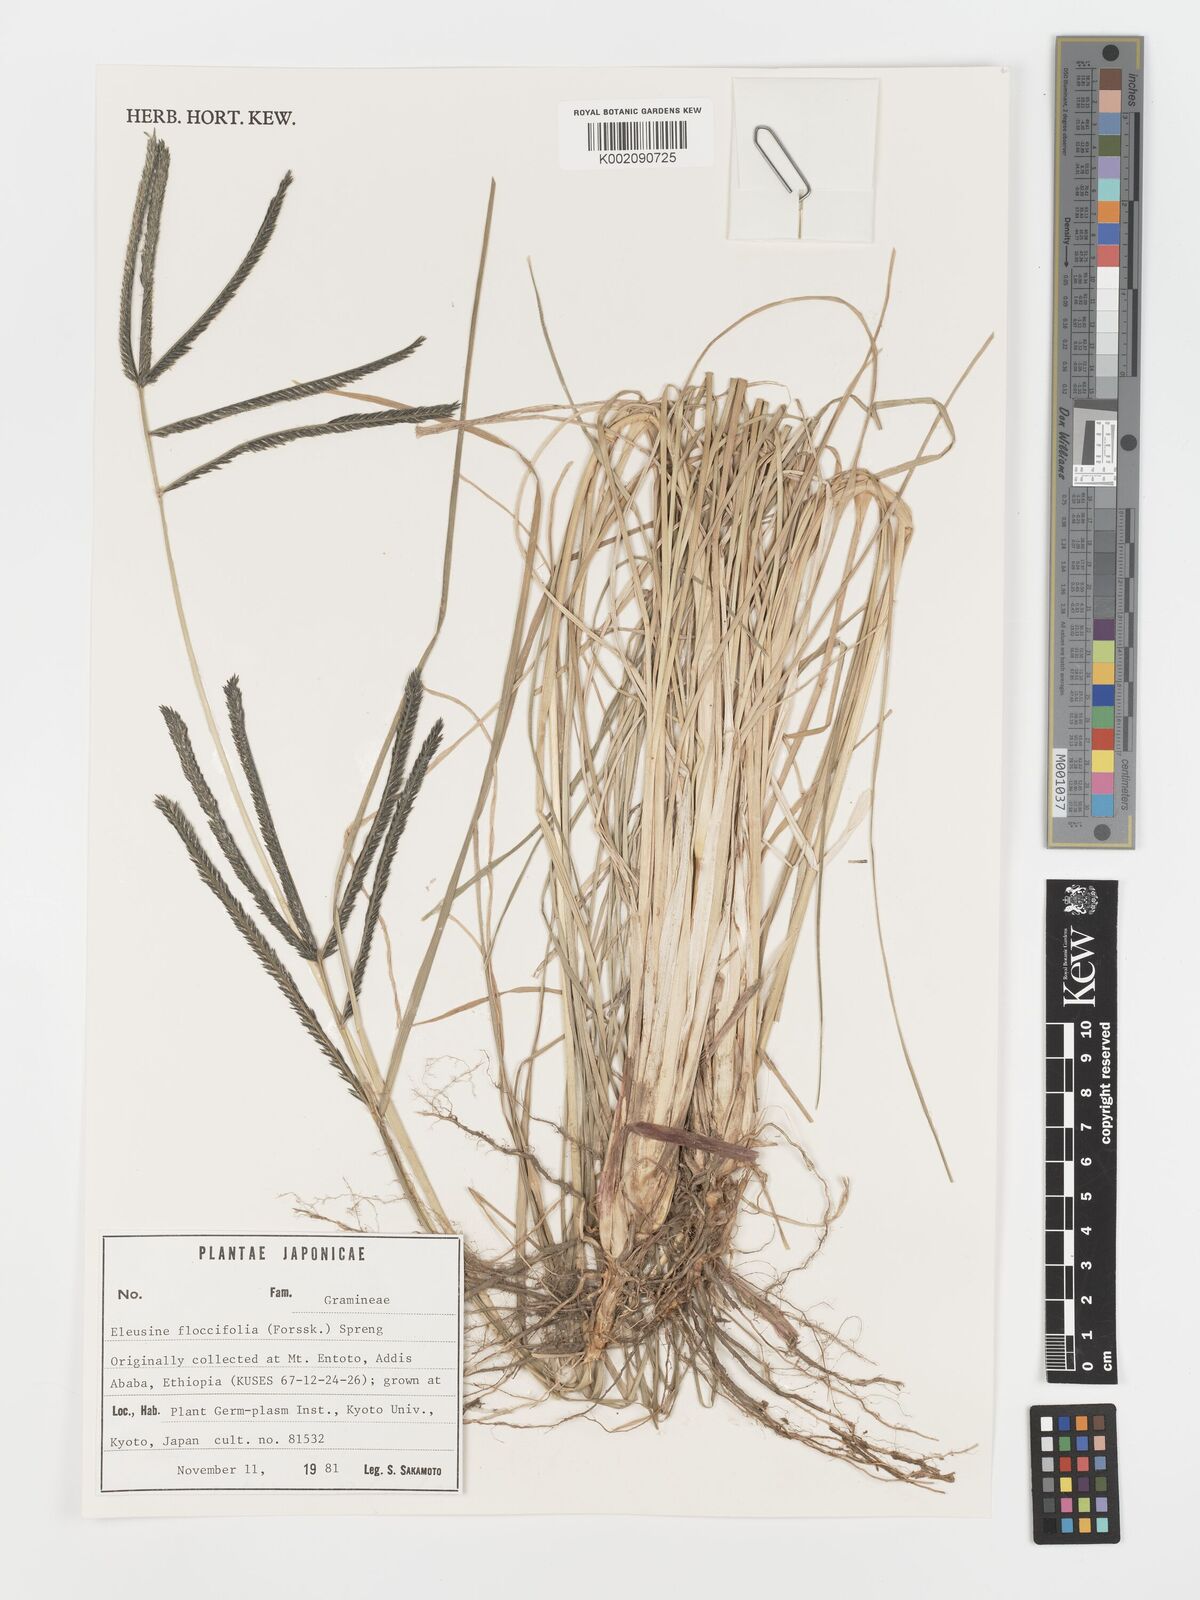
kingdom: Plantae
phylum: Tracheophyta
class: Liliopsida
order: Poales
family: Poaceae
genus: Eleusine
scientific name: Eleusine floccifolia
